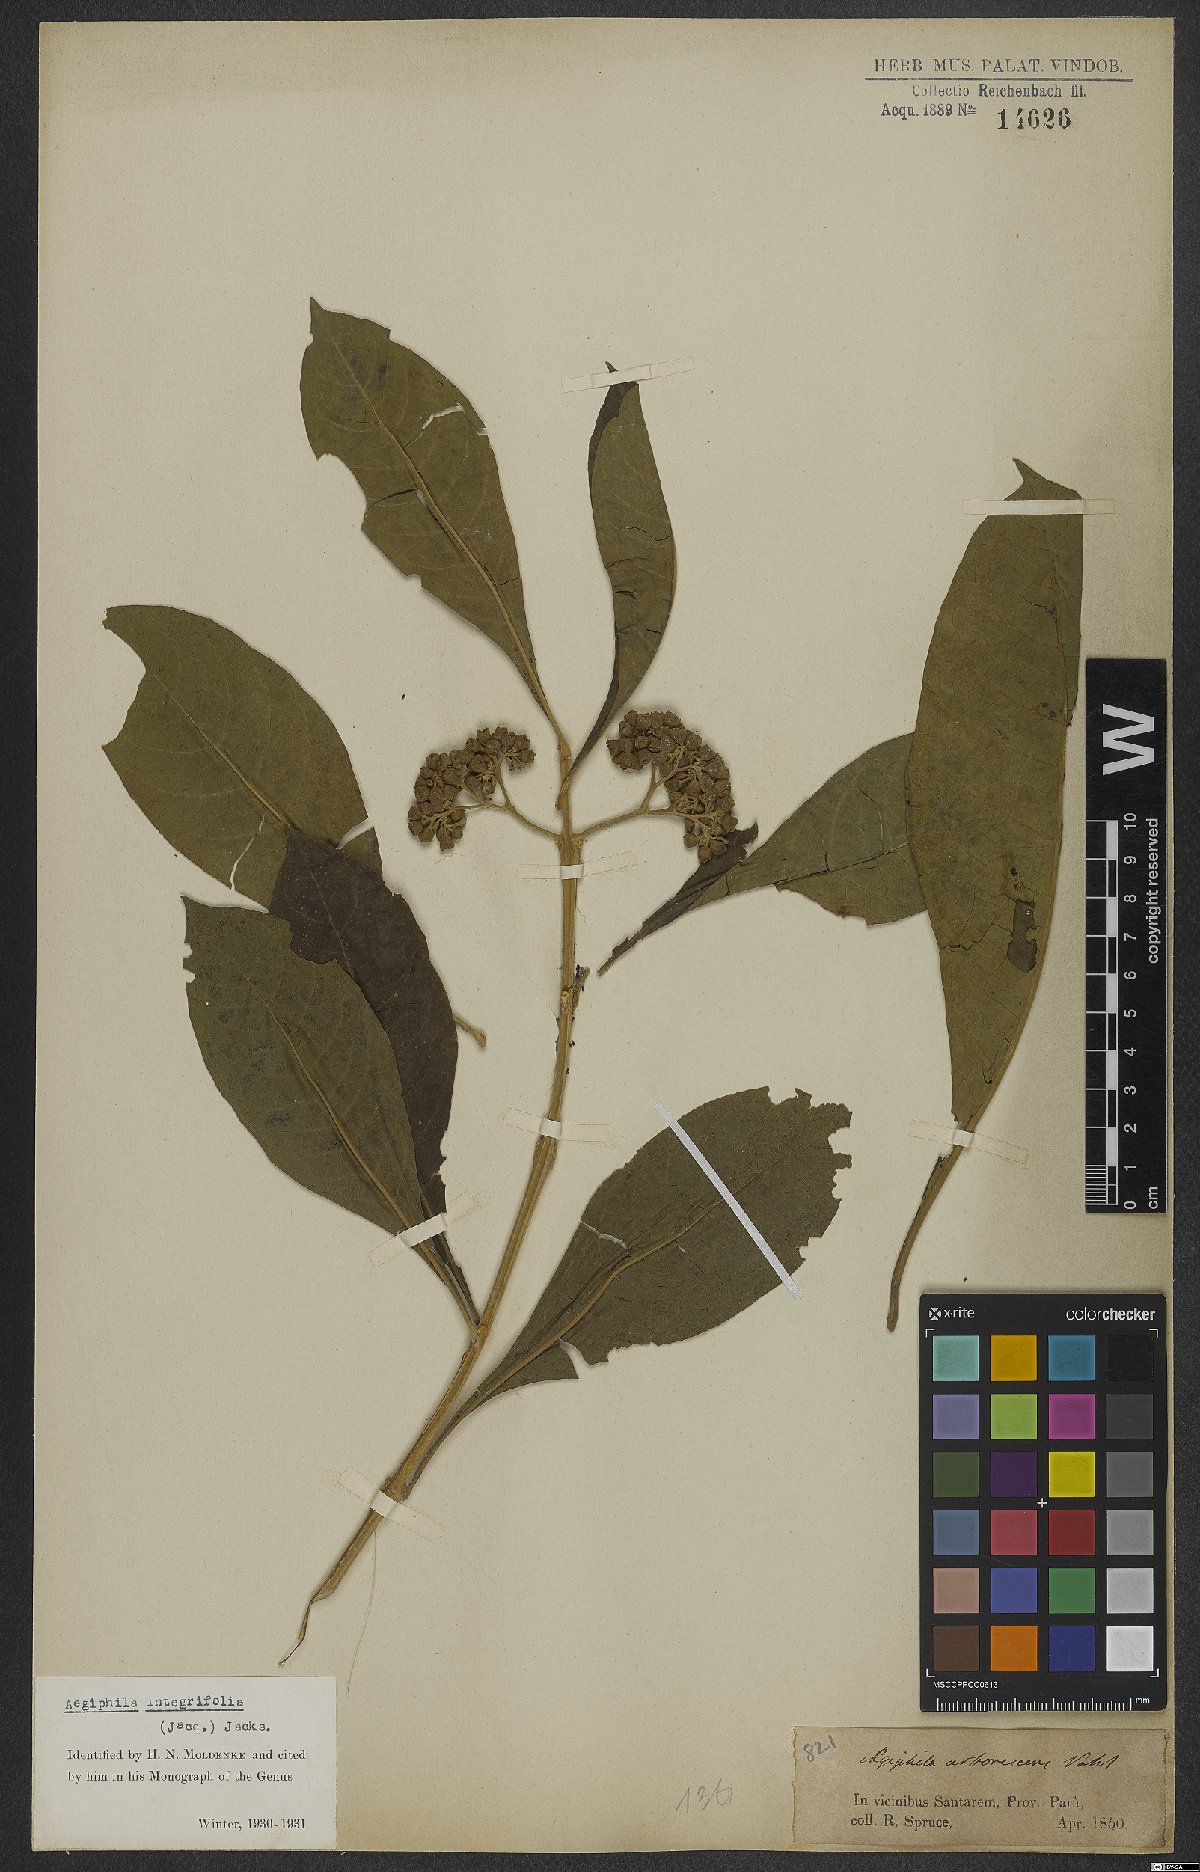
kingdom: Plantae
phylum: Tracheophyta
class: Magnoliopsida
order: Lamiales
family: Lamiaceae
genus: Aegiphila
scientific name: Aegiphila integrifolia
